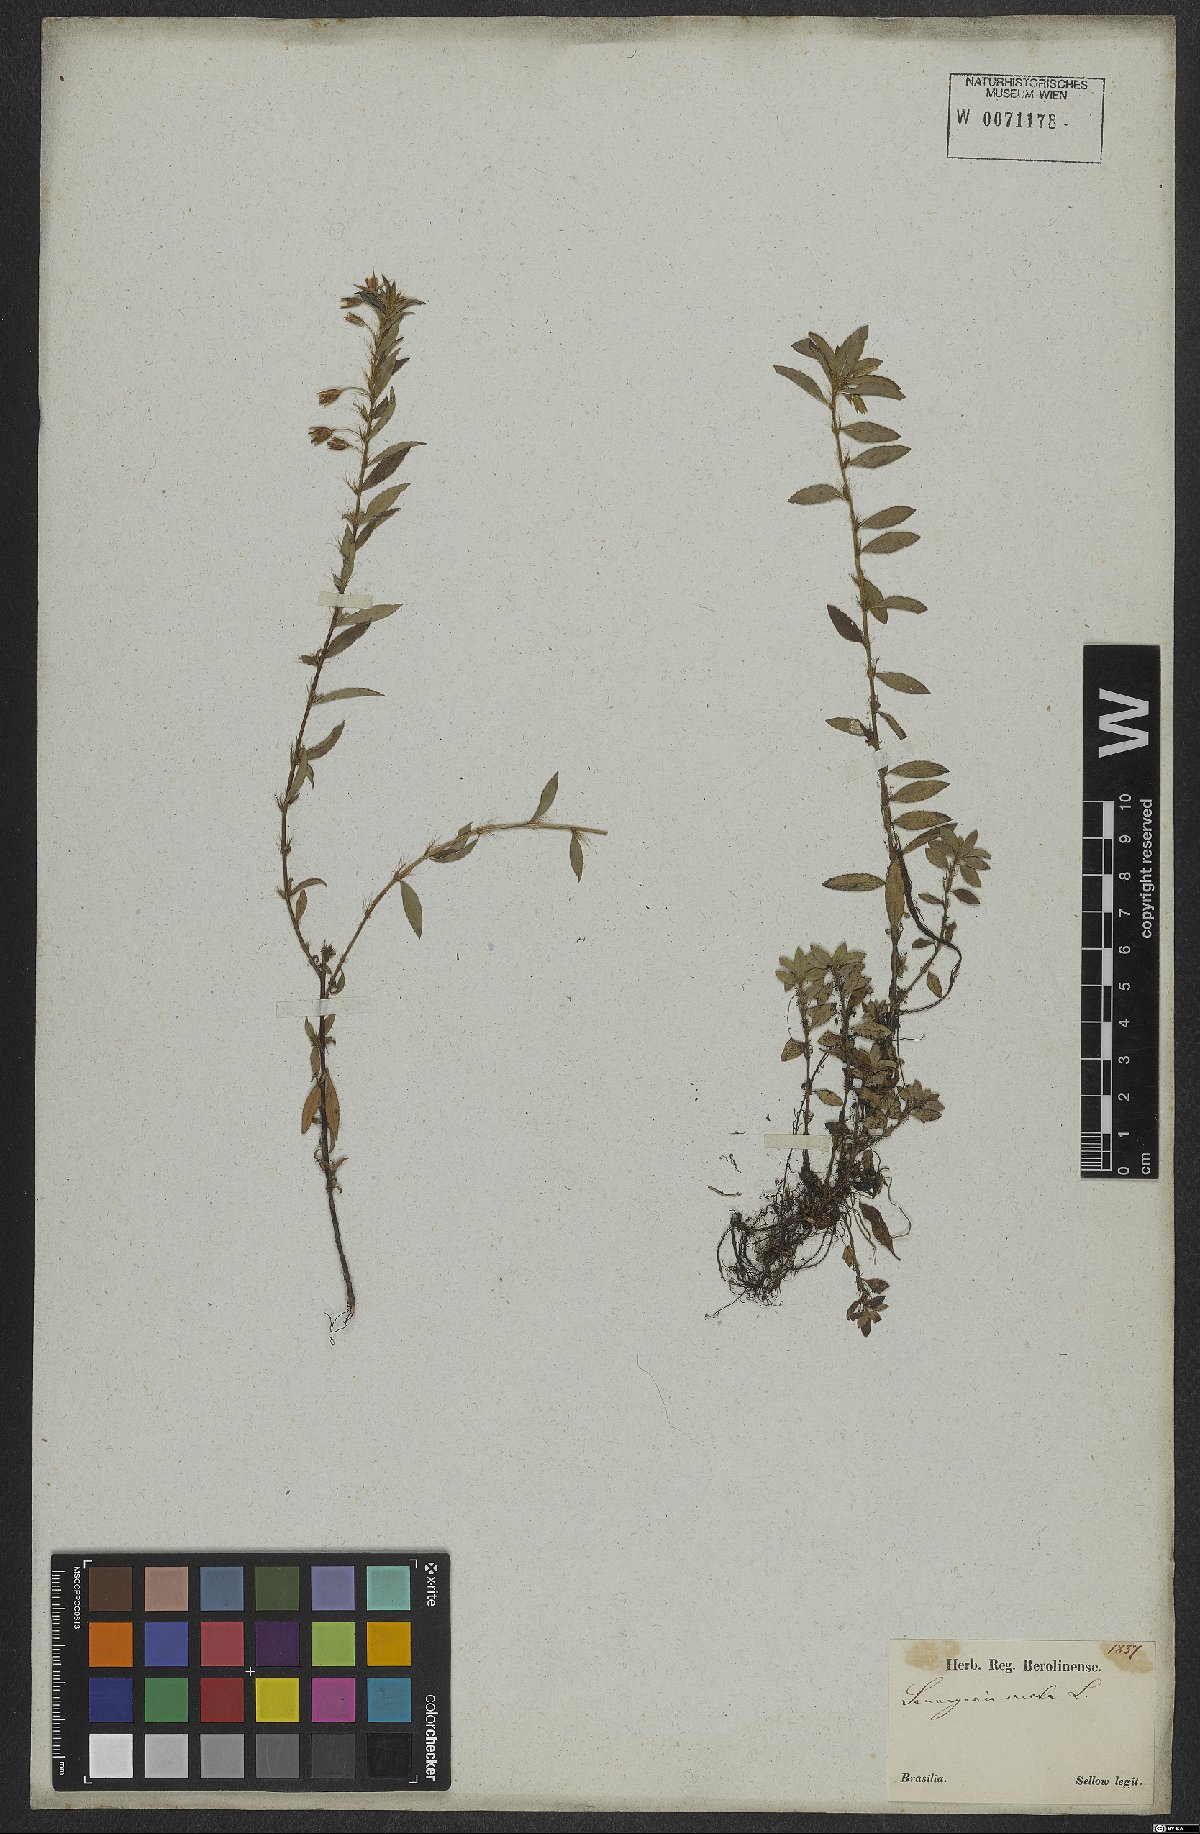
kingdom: Plantae
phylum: Tracheophyta
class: Magnoliopsida
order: Malpighiales
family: Ochnaceae
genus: Sauvagesia
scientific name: Sauvagesia erecta
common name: Creole tea
